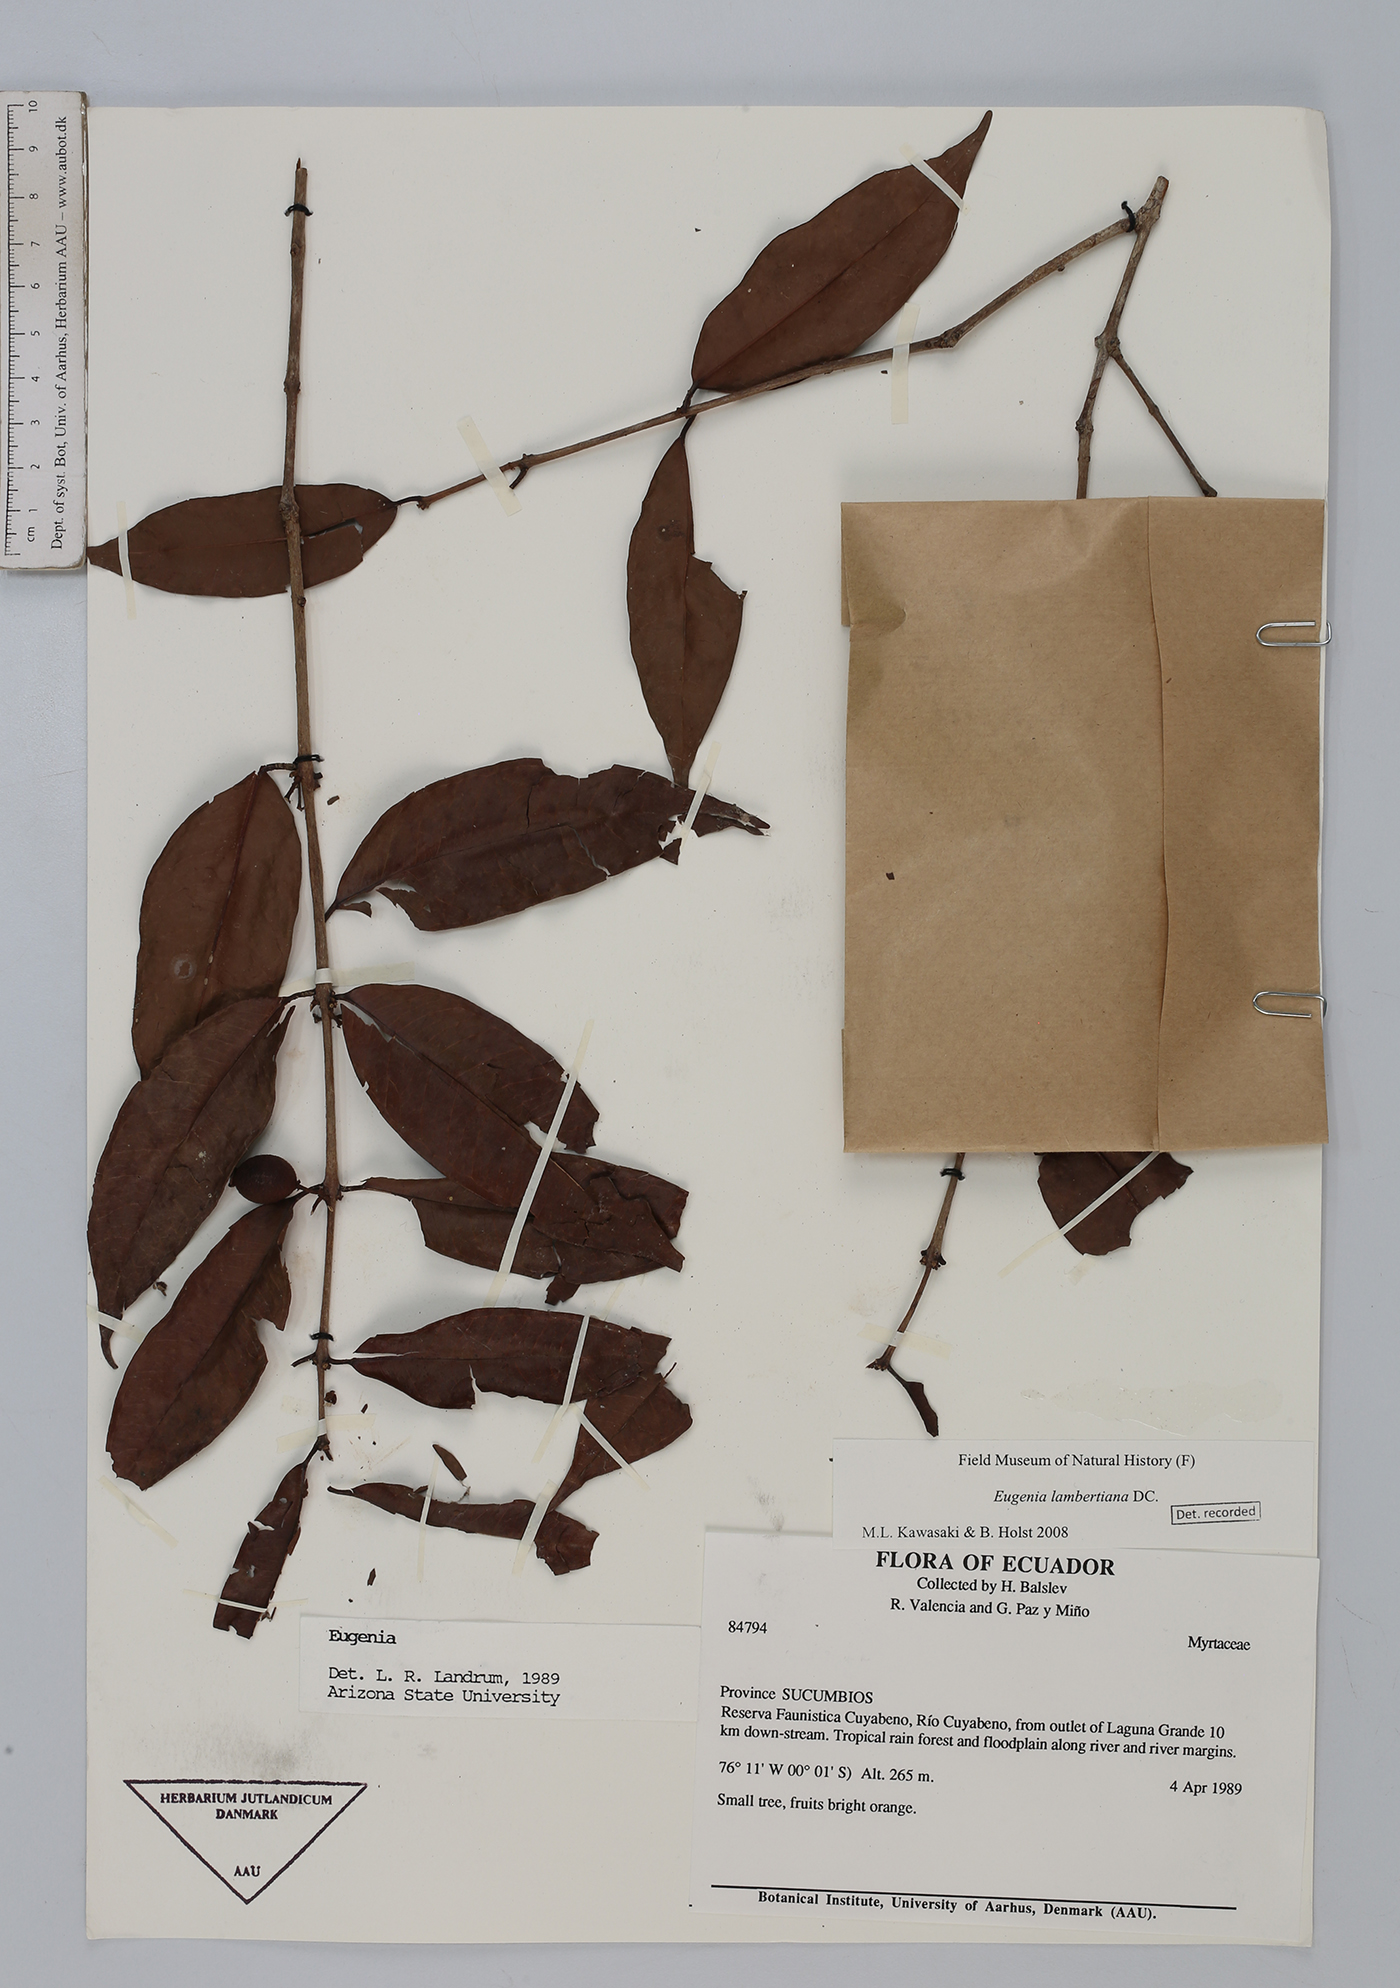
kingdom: Plantae
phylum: Tracheophyta
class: Magnoliopsida
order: Myrtales
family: Myrtaceae
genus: Eugenia
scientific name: Eugenia lambertiana
